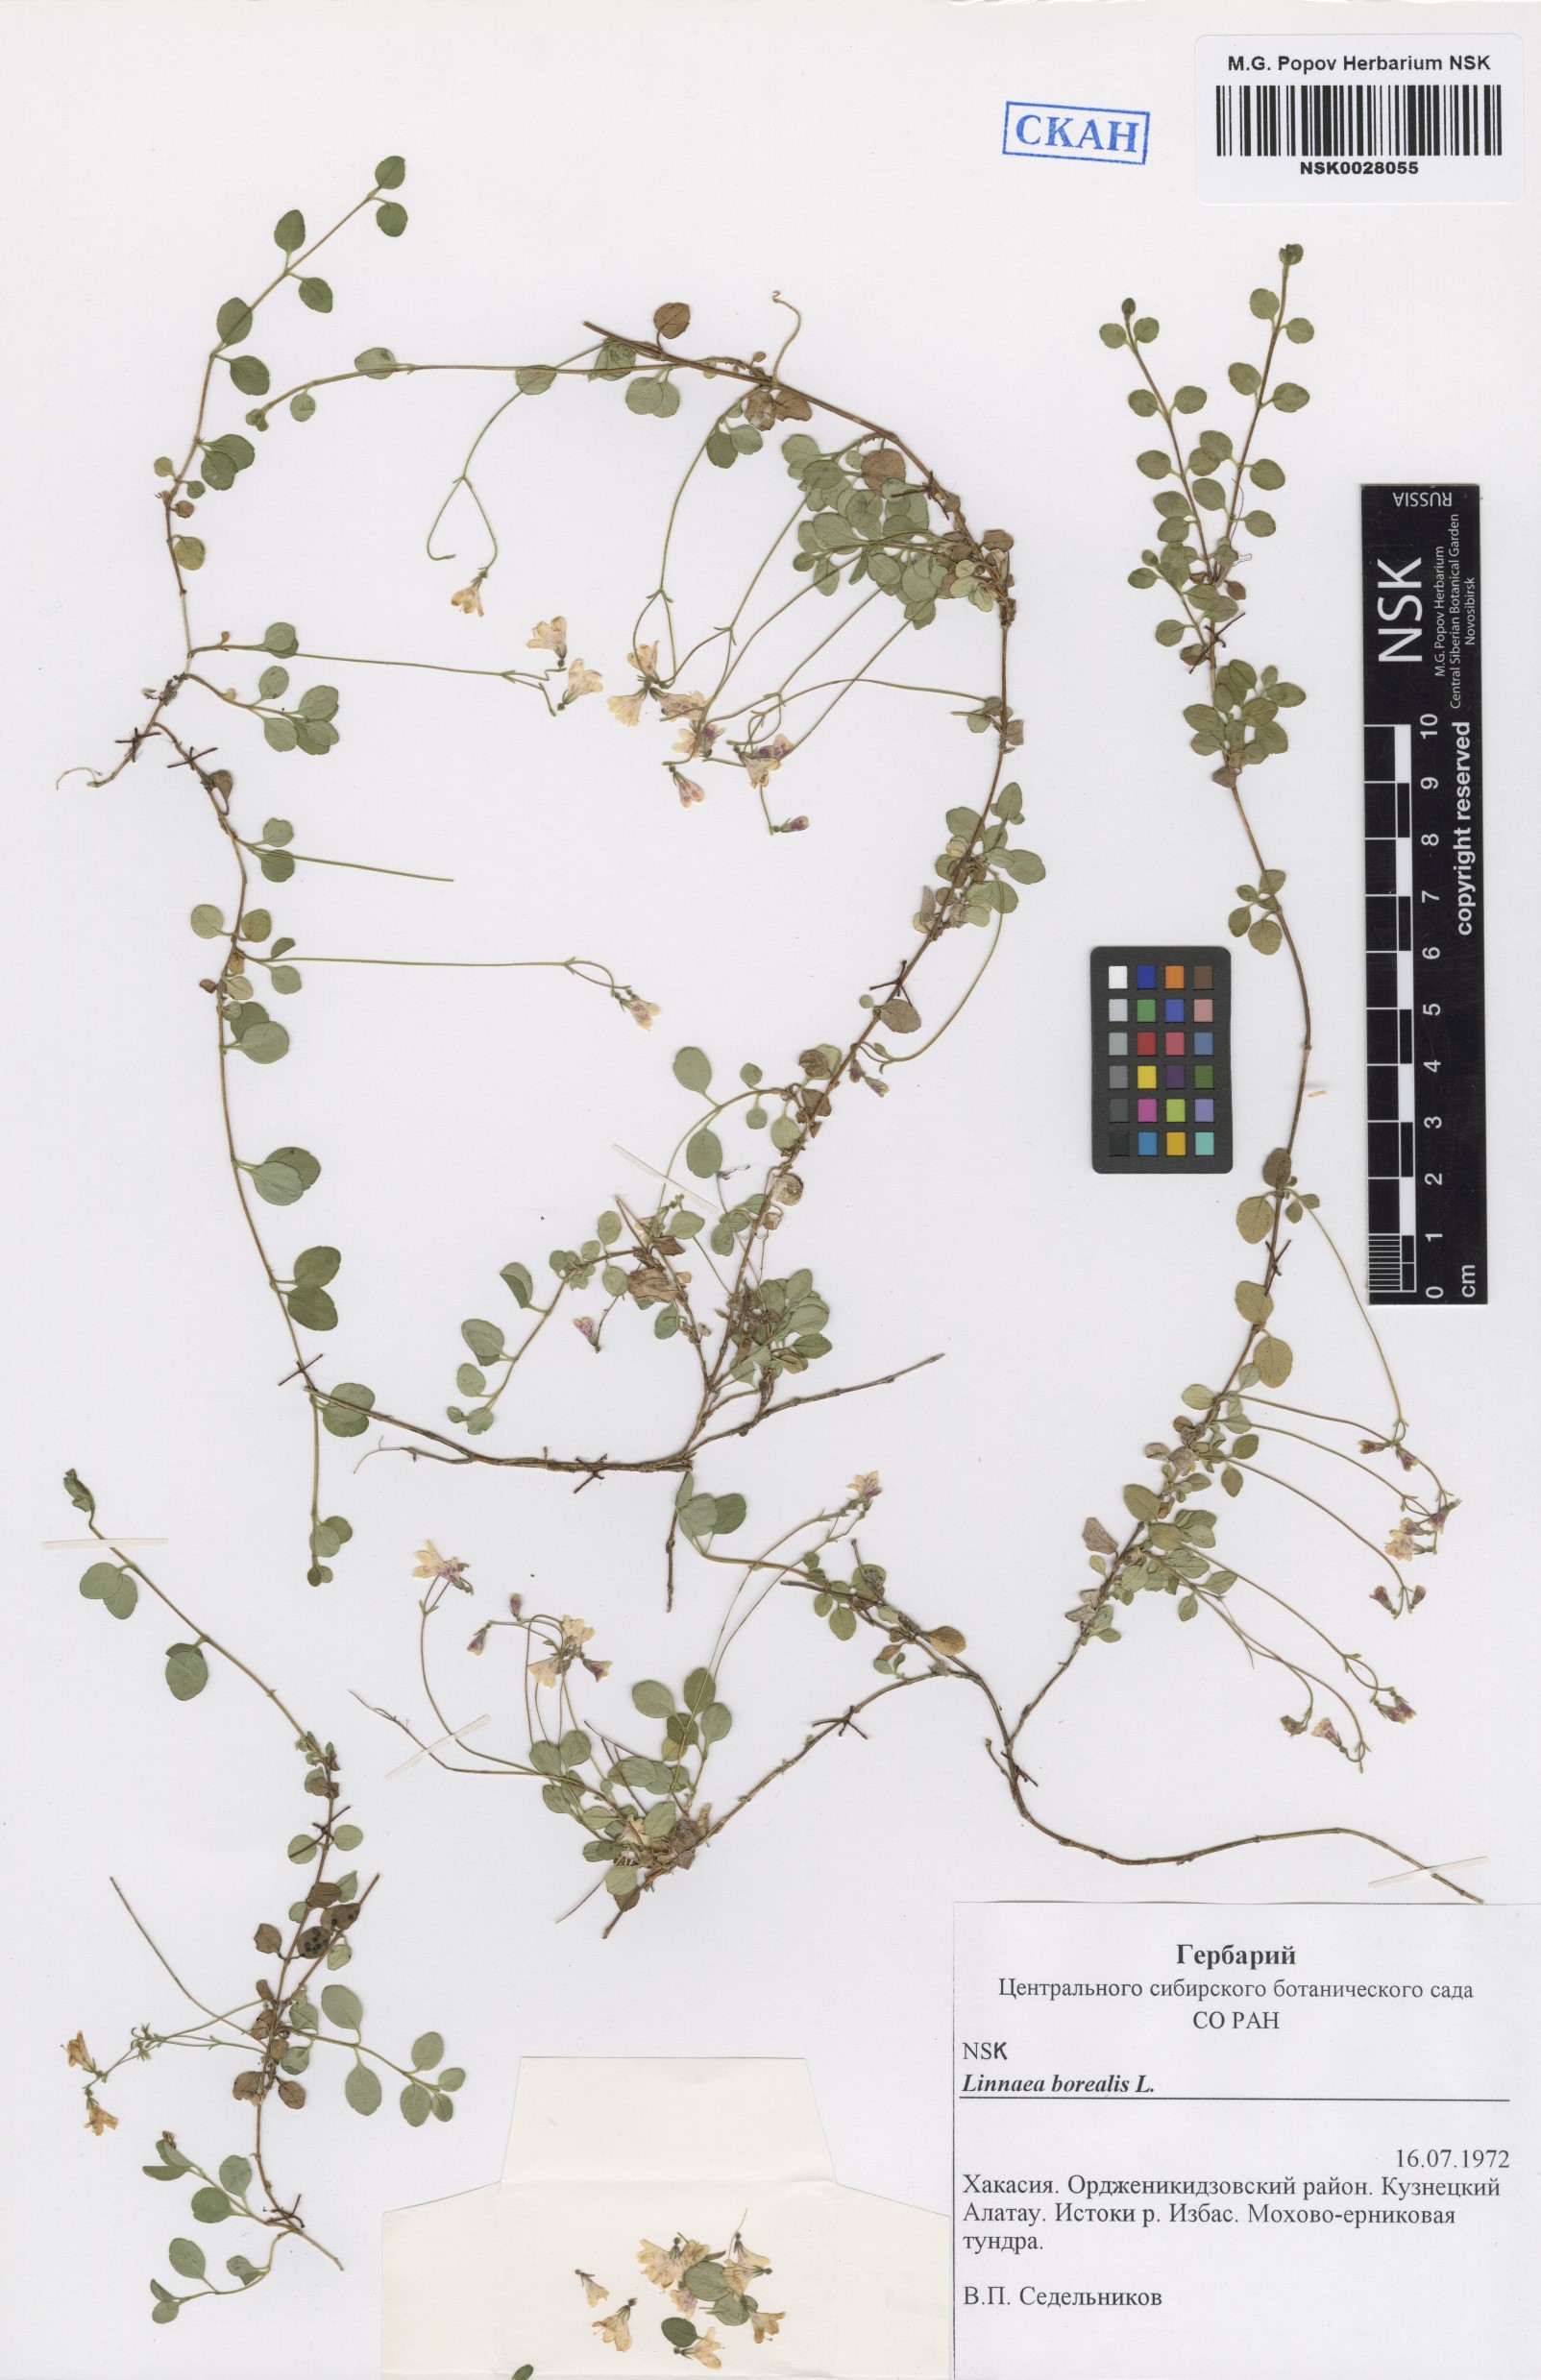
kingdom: Plantae
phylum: Tracheophyta
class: Magnoliopsida
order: Dipsacales
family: Caprifoliaceae
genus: Linnaea
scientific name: Linnaea borealis
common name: Twinflower
